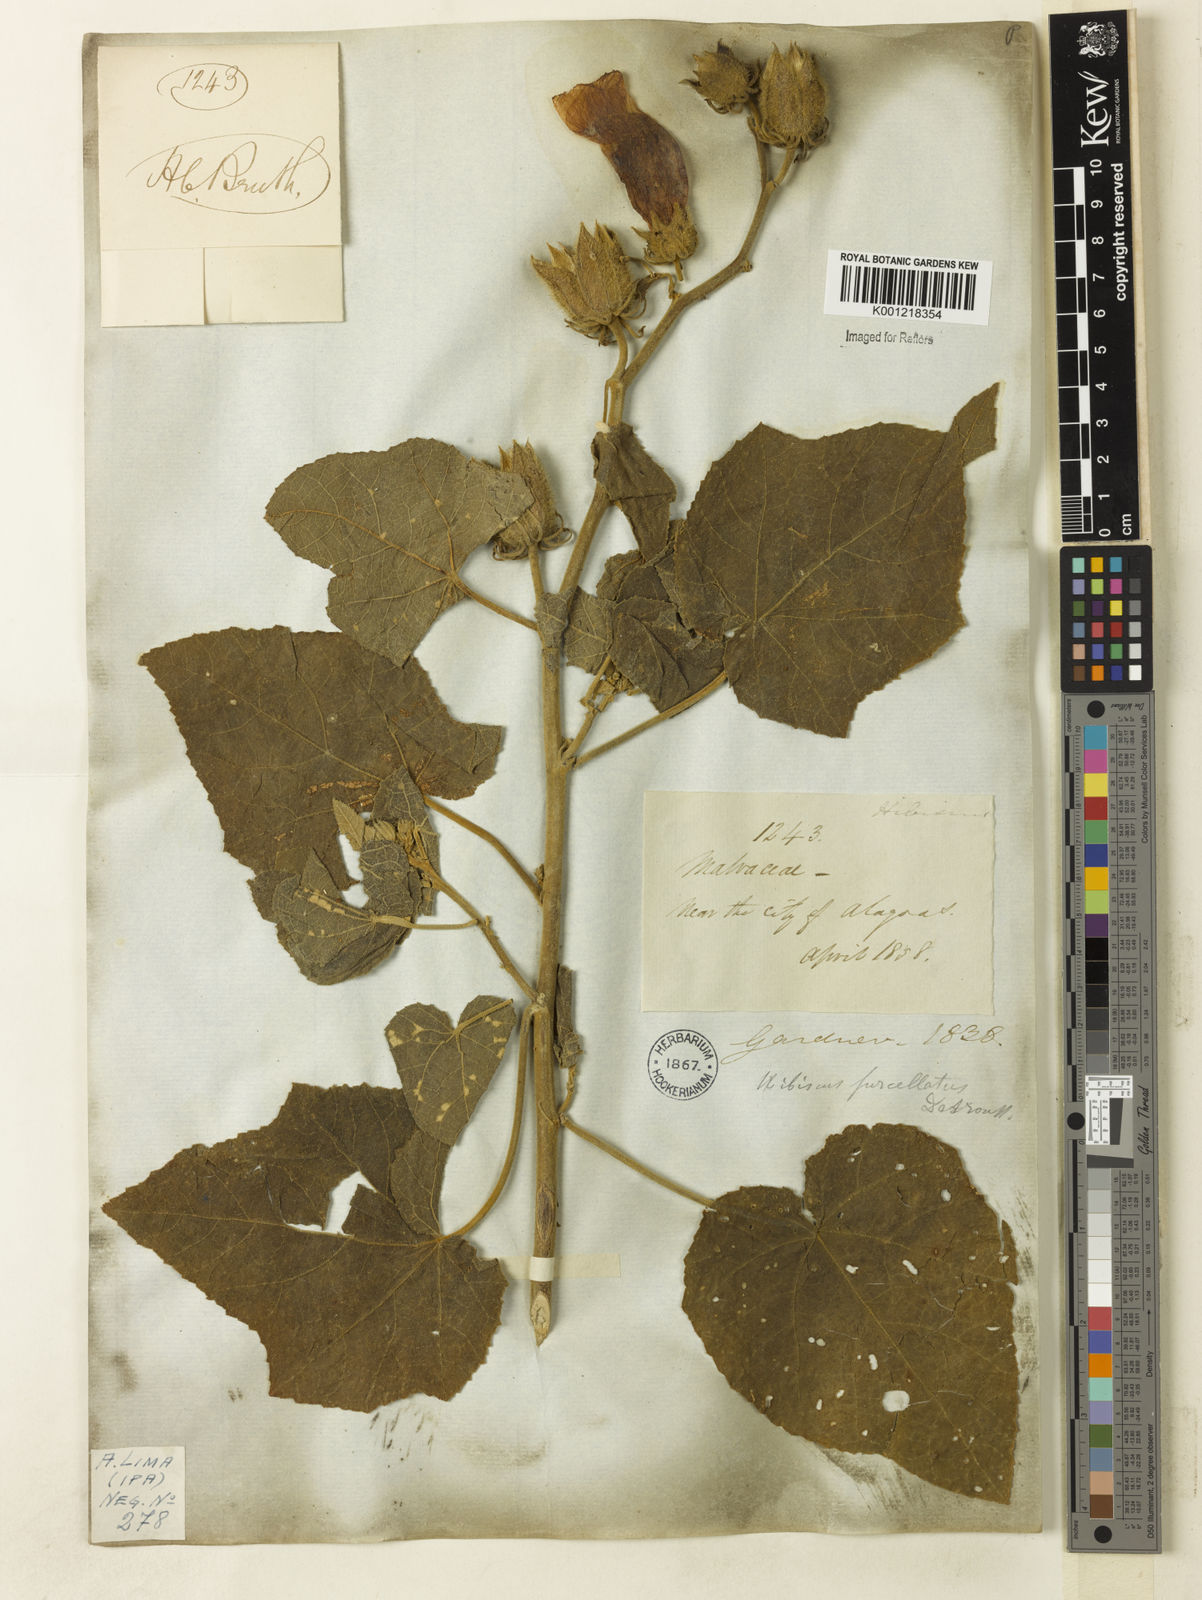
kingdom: Plantae
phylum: Tracheophyta
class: Magnoliopsida
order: Malvales
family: Malvaceae
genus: Hibiscus
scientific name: Hibiscus furcellatus
